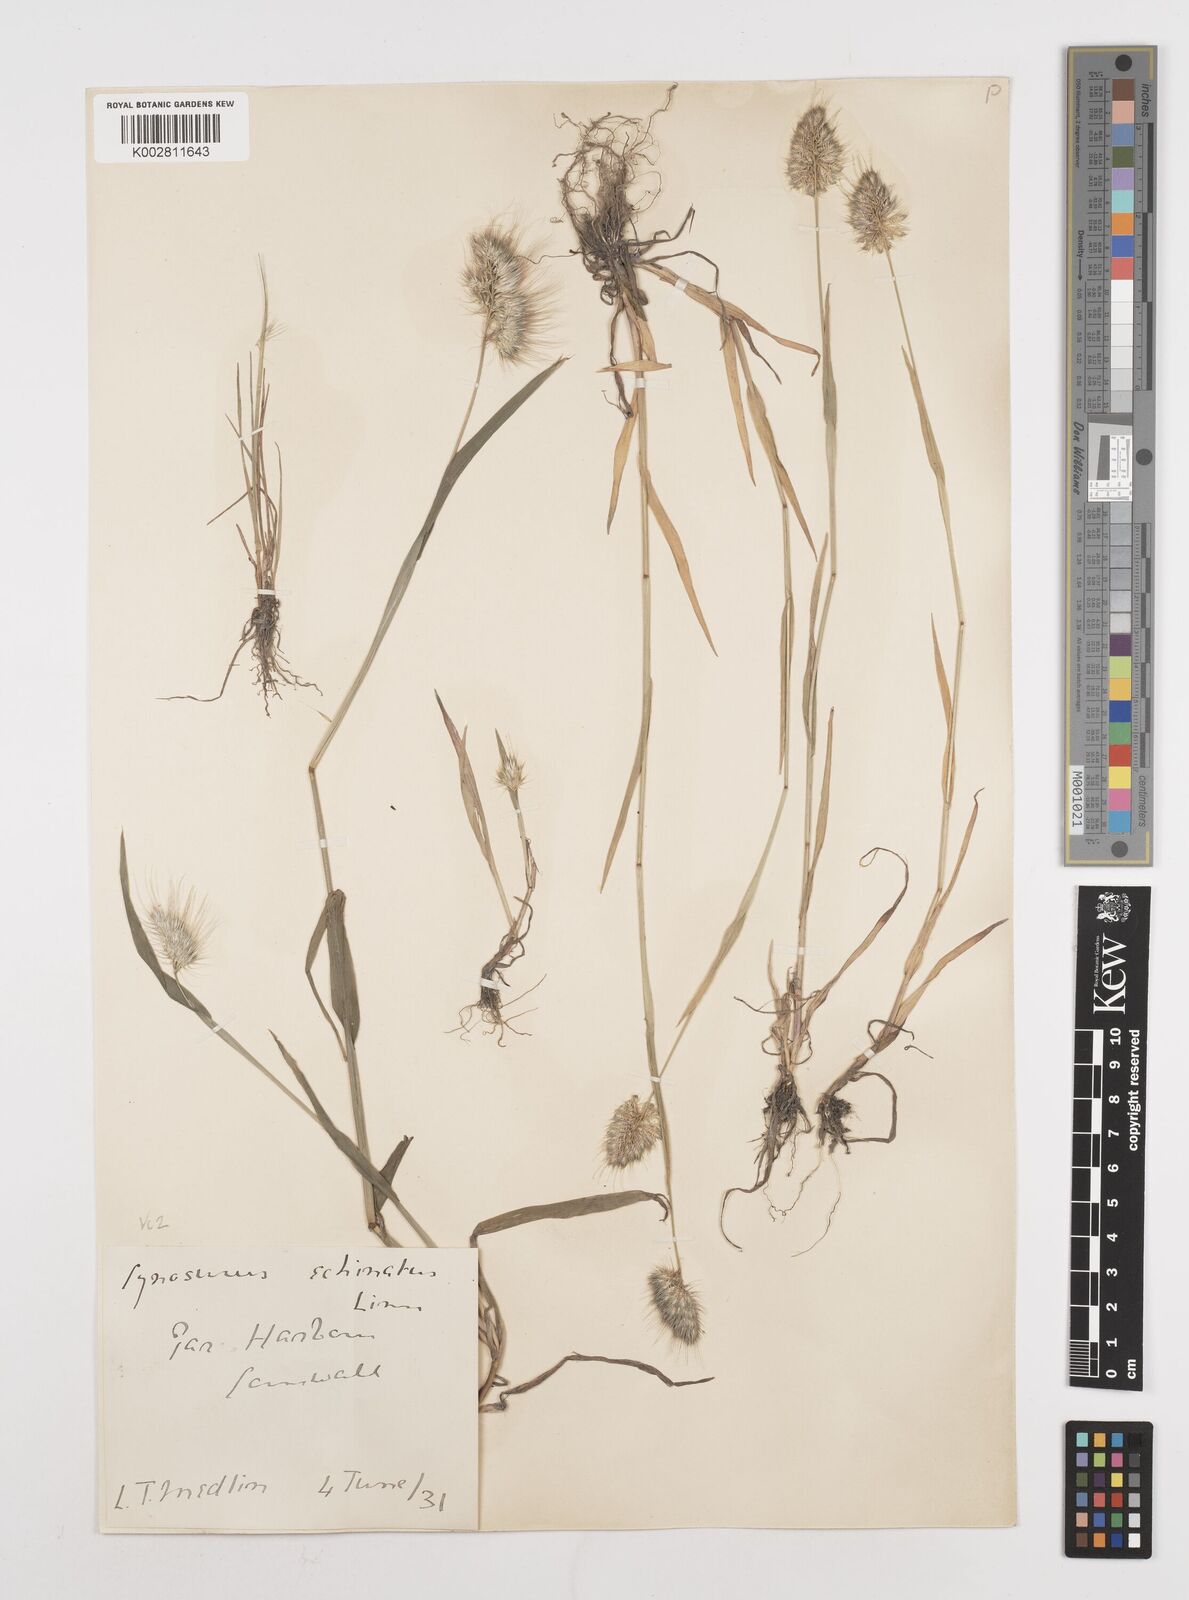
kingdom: Plantae
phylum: Tracheophyta
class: Liliopsida
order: Poales
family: Poaceae
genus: Cynosurus
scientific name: Cynosurus echinatus
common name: Rough dog's-tail
